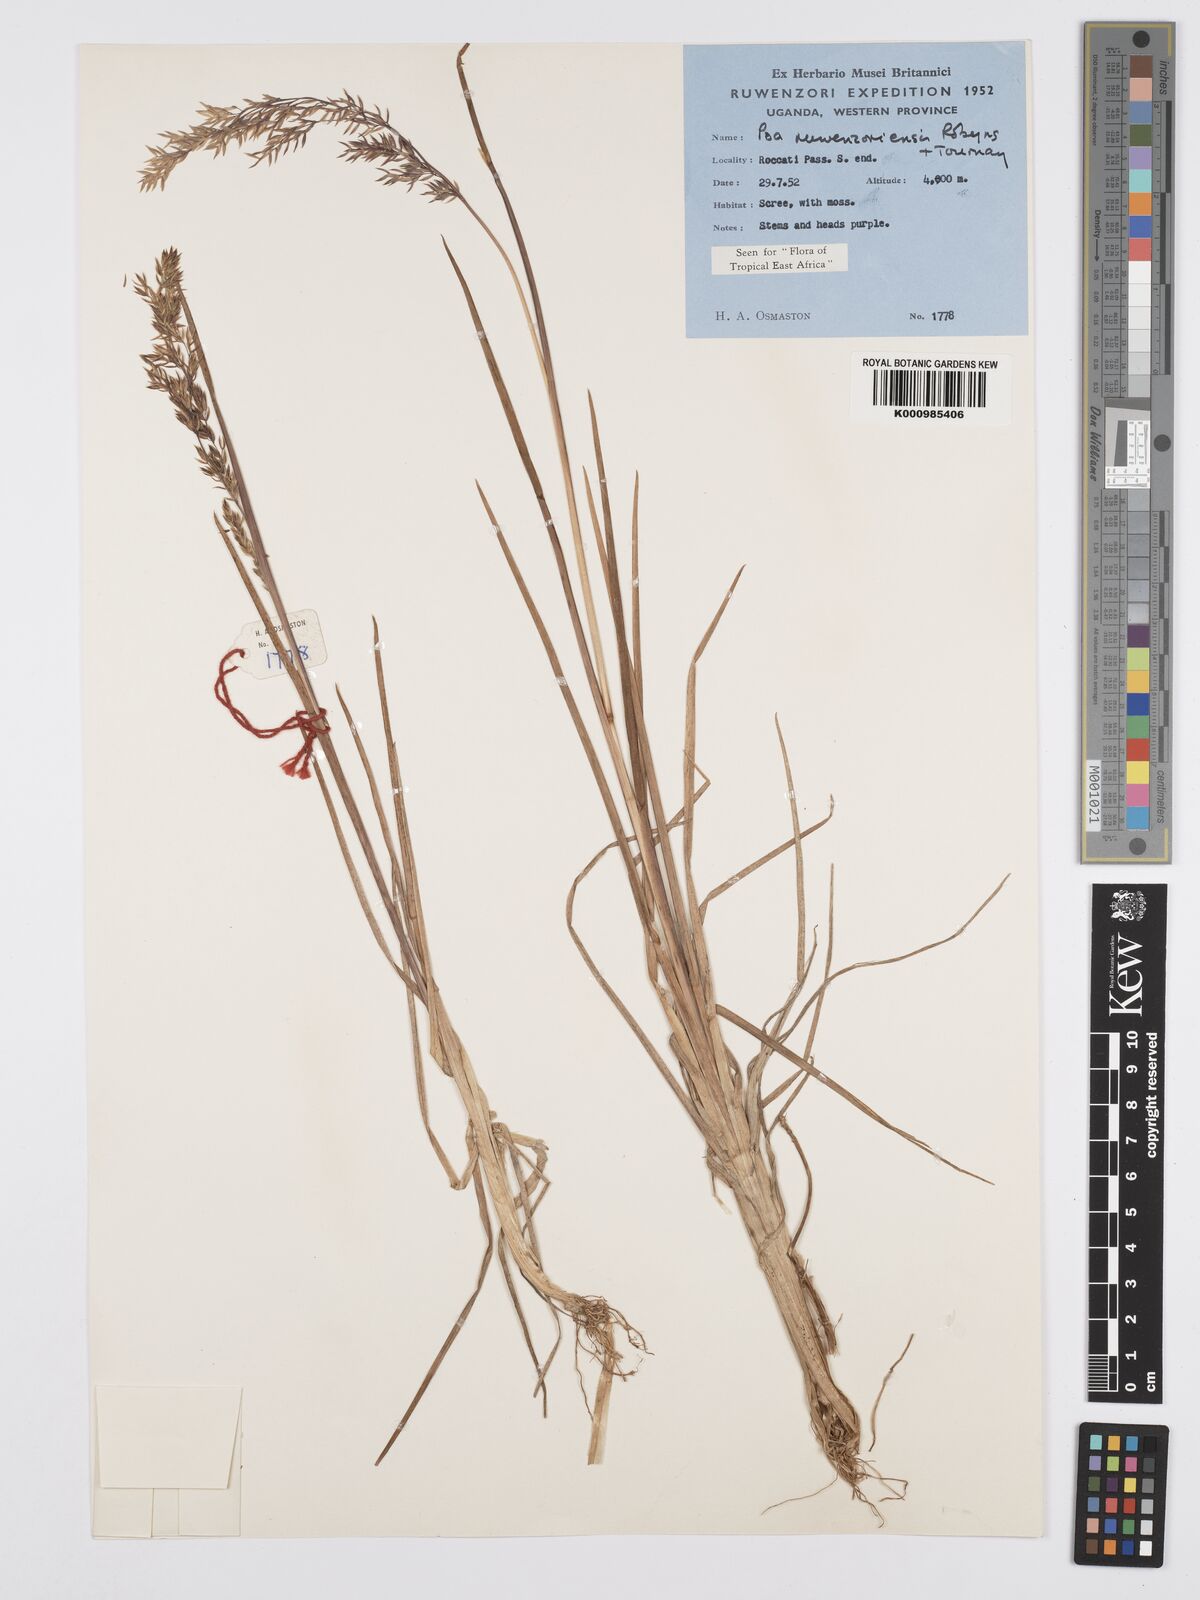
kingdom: Plantae
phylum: Tracheophyta
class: Liliopsida
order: Poales
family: Poaceae
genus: Poa
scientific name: Poa ruwenzoriensis
